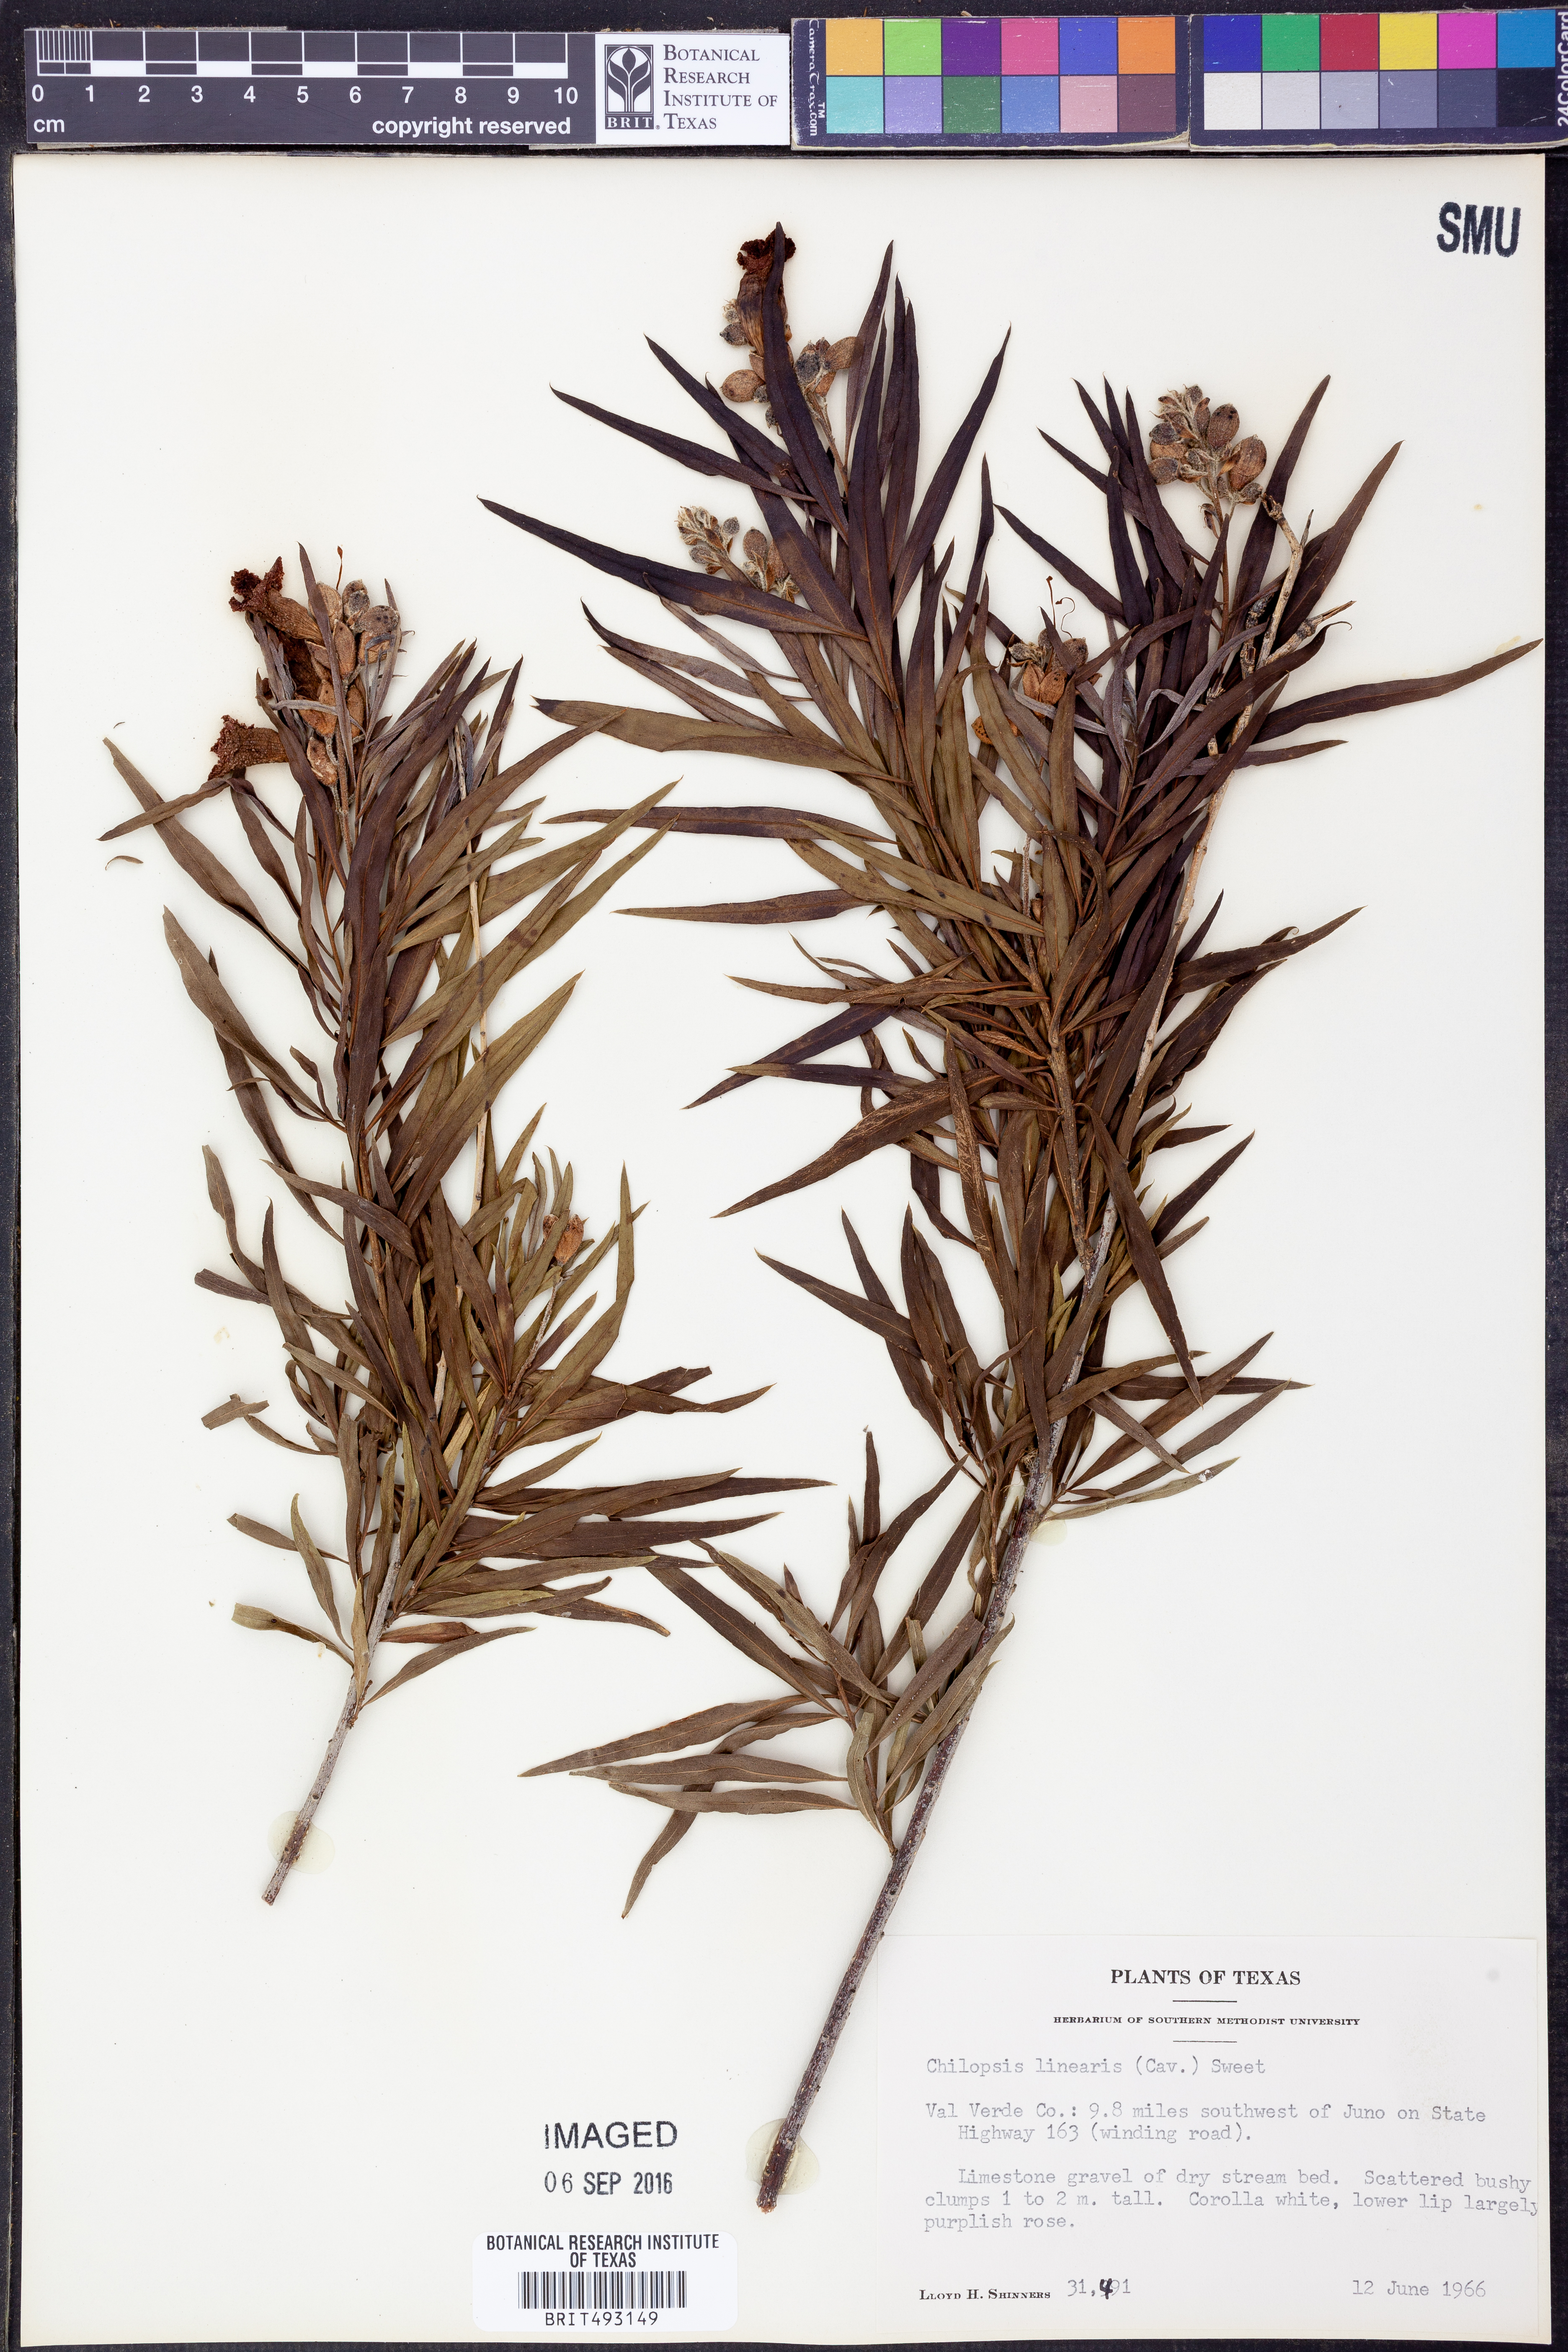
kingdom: Plantae
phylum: Tracheophyta
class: Magnoliopsida
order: Lamiales
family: Bignoniaceae
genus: Chilopsis
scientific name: Chilopsis linearis
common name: Desert-willow
